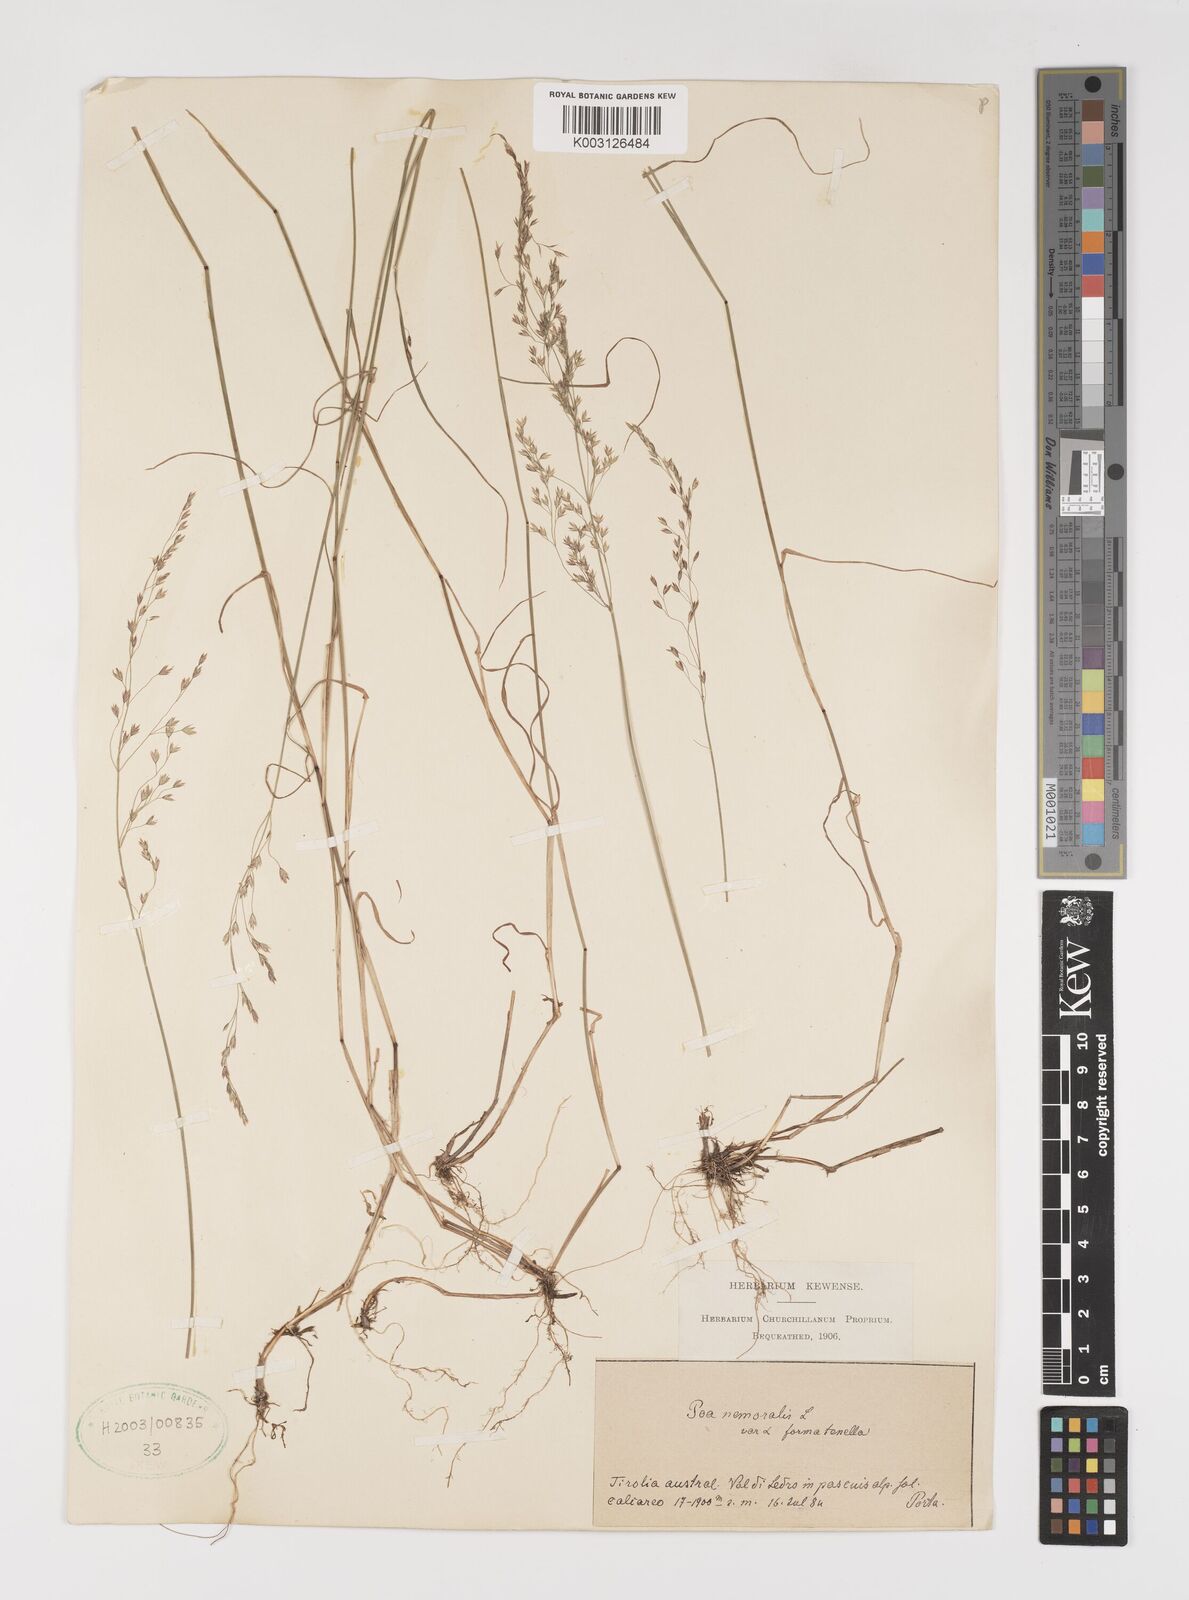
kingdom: Plantae
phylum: Tracheophyta
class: Liliopsida
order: Poales
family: Poaceae
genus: Poa
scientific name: Poa
